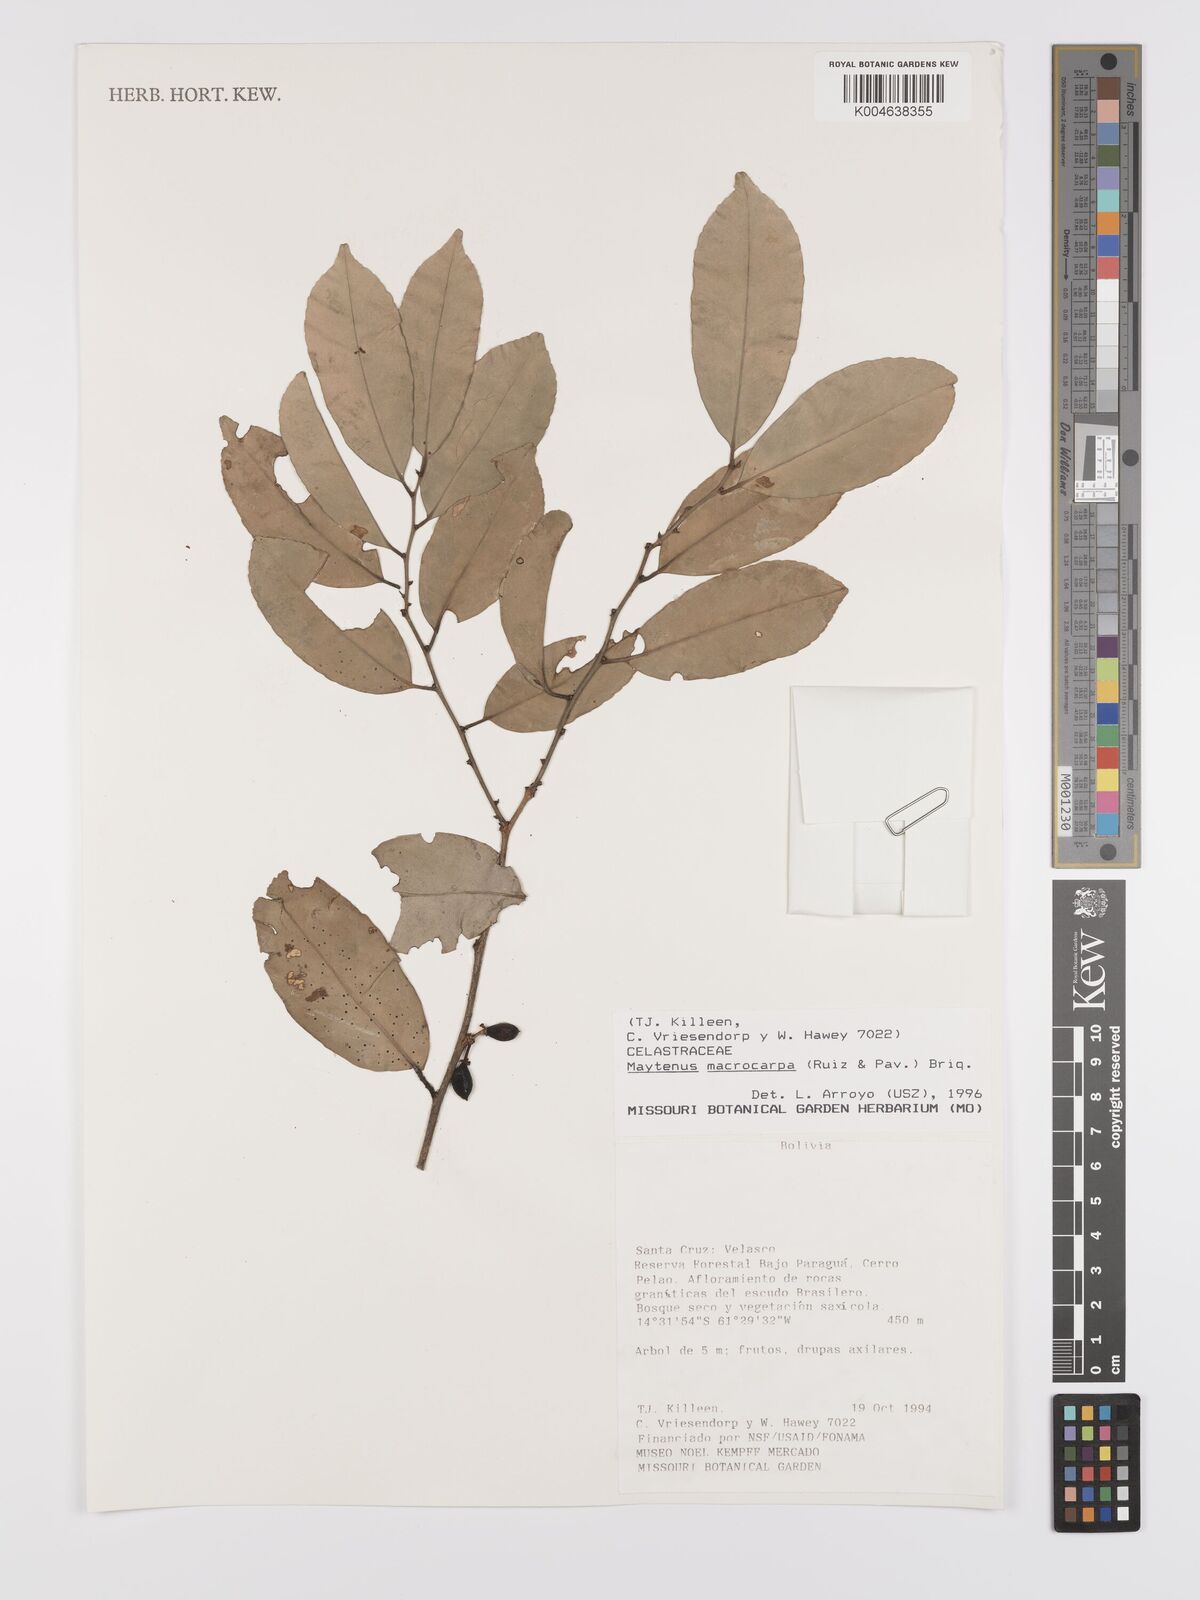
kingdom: Plantae
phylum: Tracheophyta
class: Magnoliopsida
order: Celastrales
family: Celastraceae
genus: Monteverdia
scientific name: Monteverdia macrocarpa
